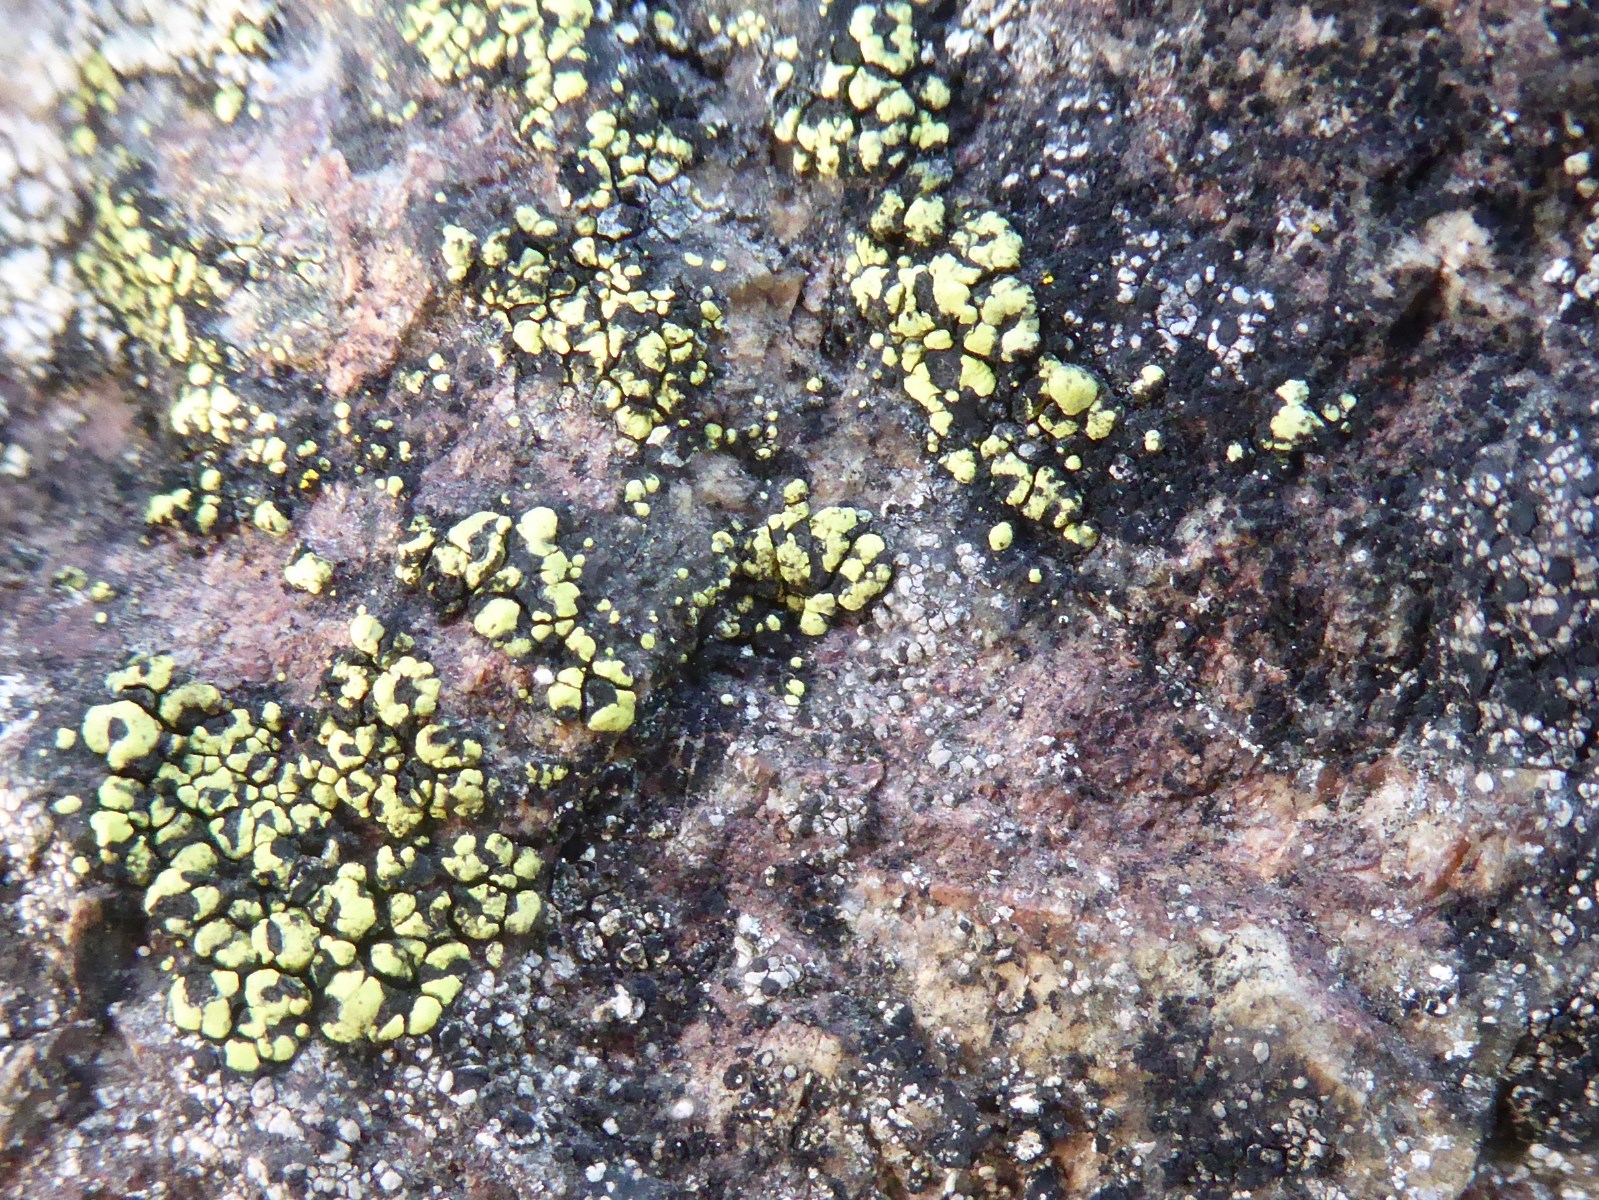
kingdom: Fungi
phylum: Ascomycota
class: Lecanoromycetes
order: Rhizocarpales
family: Rhizocarpaceae
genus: Rhizocarpon
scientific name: Rhizocarpon lecanorinum
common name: krave-landkortlav
